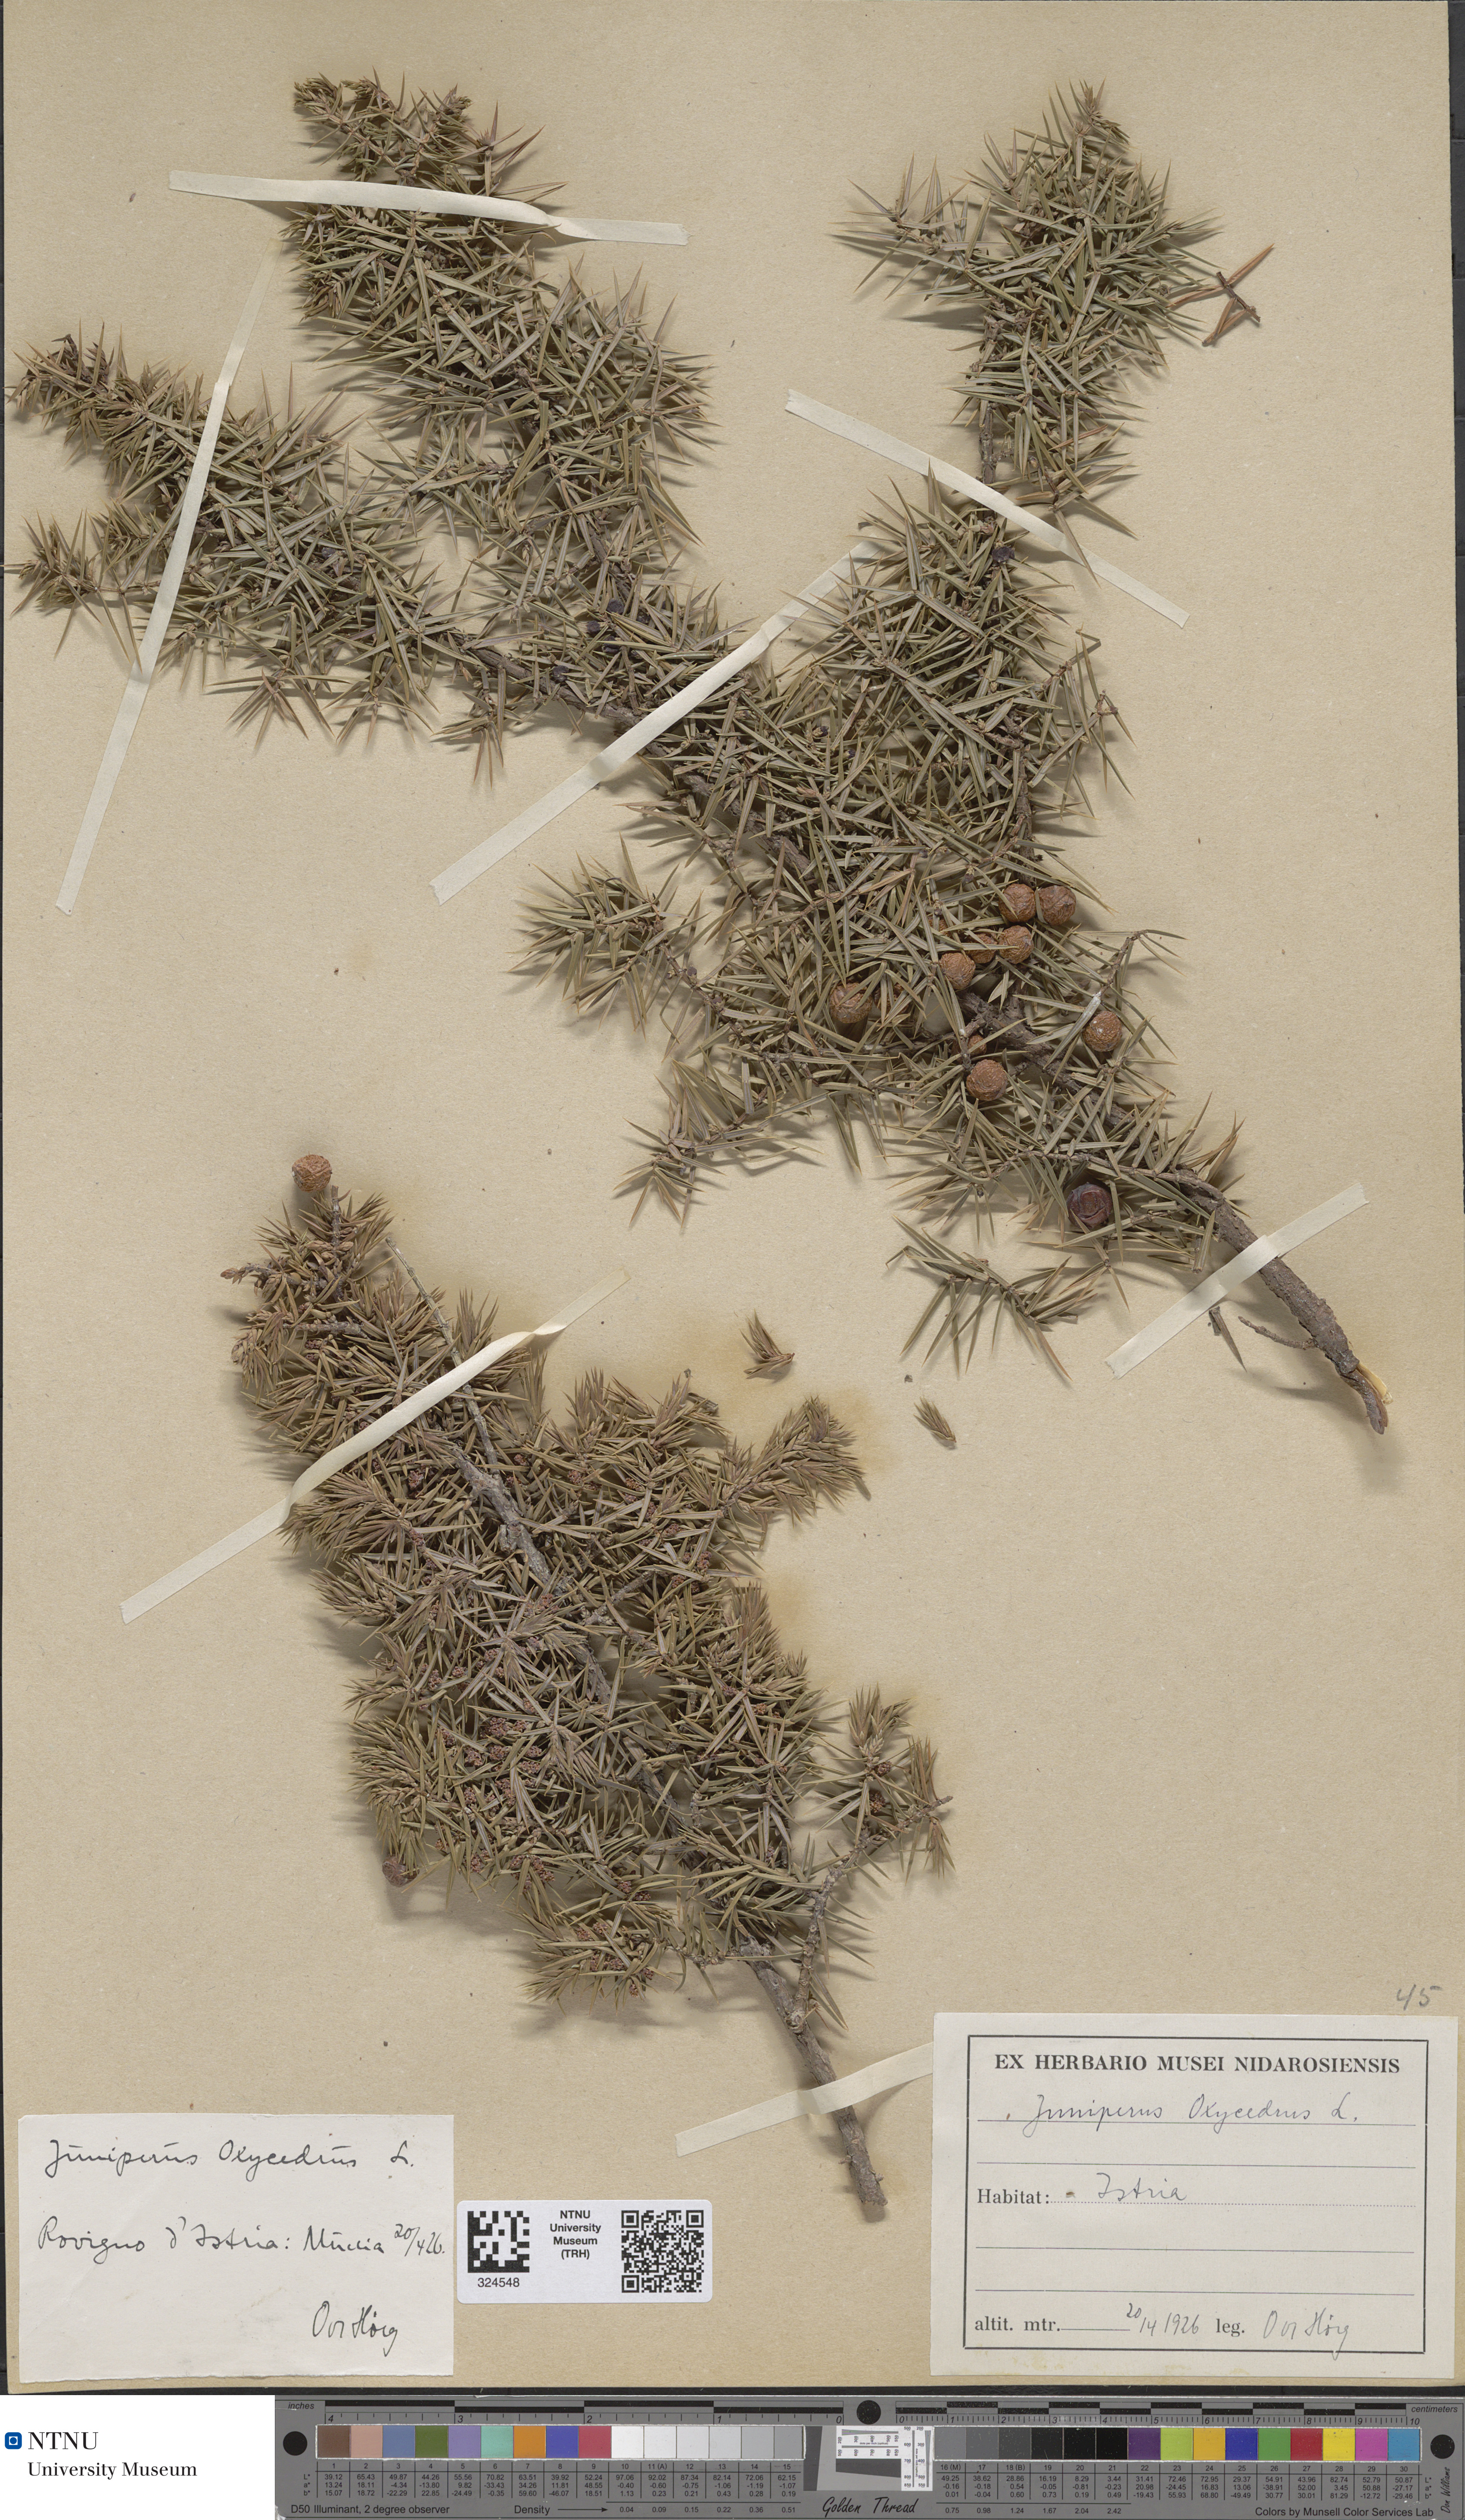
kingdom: Plantae
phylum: Tracheophyta
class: Pinopsida
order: Pinales
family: Cupressaceae
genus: Juniperus
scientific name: Juniperus oxycedrus
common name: Prickly juniper
